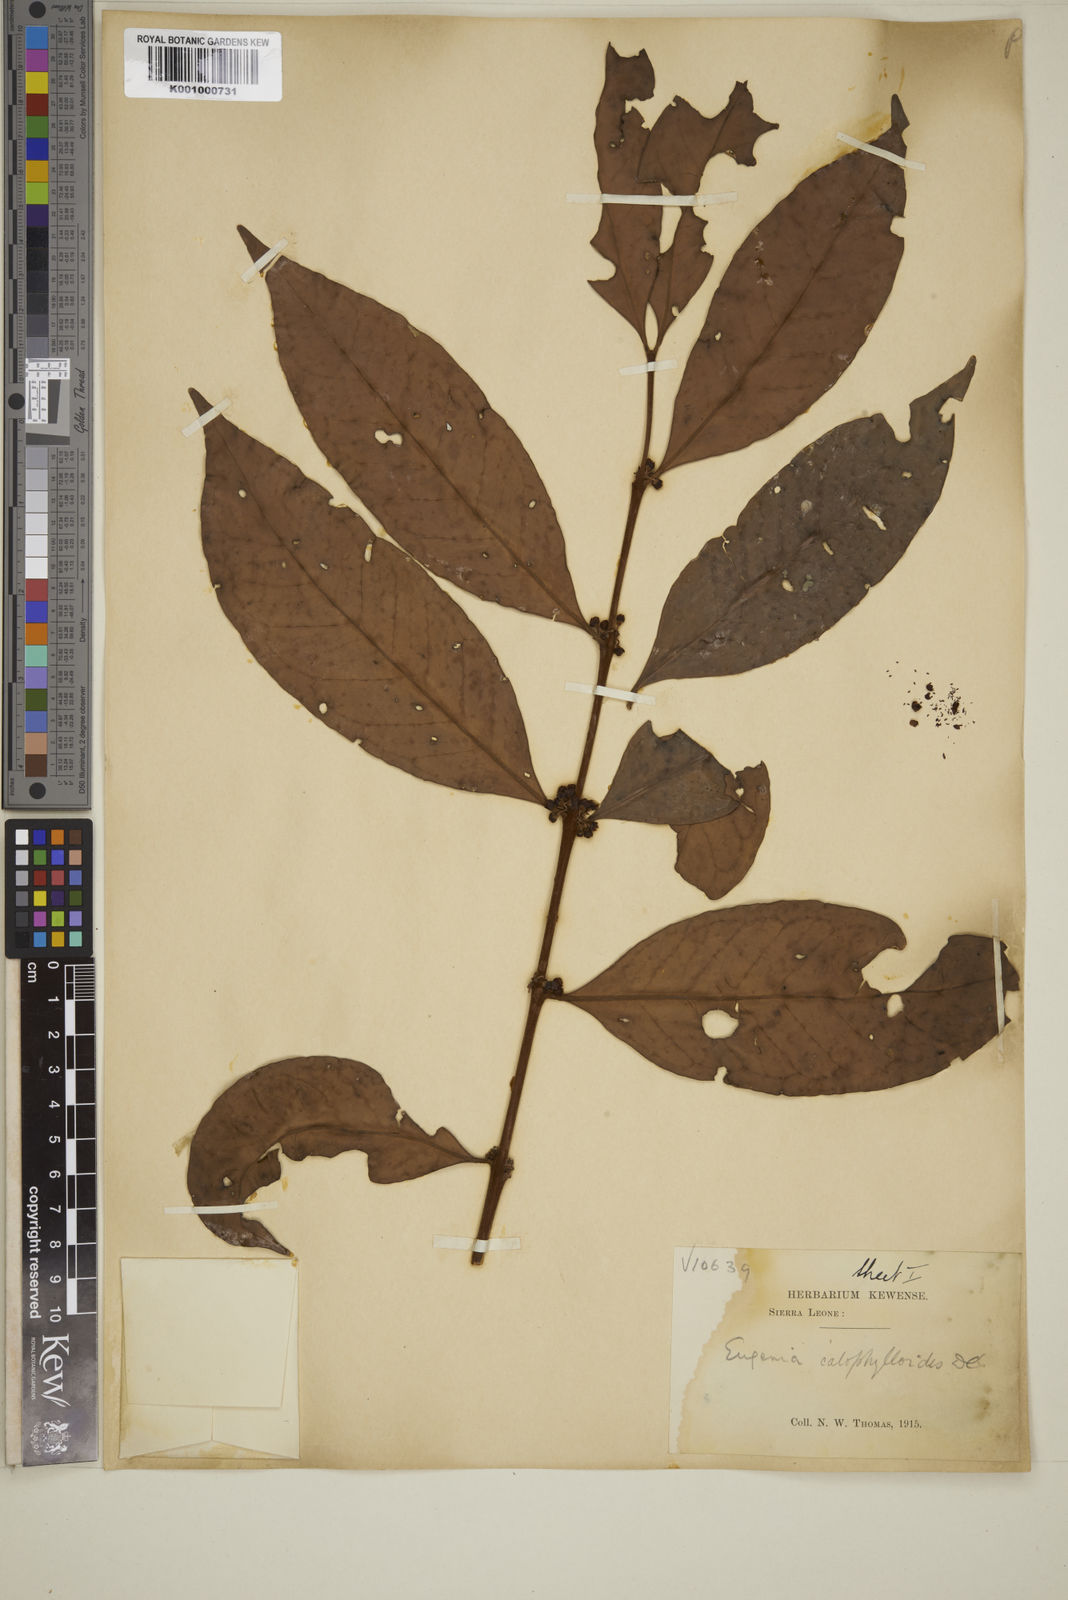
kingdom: Plantae
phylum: Tracheophyta
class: Magnoliopsida
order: Myrtales
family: Myrtaceae
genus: Eugenia
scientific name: Eugenia calophylloides
